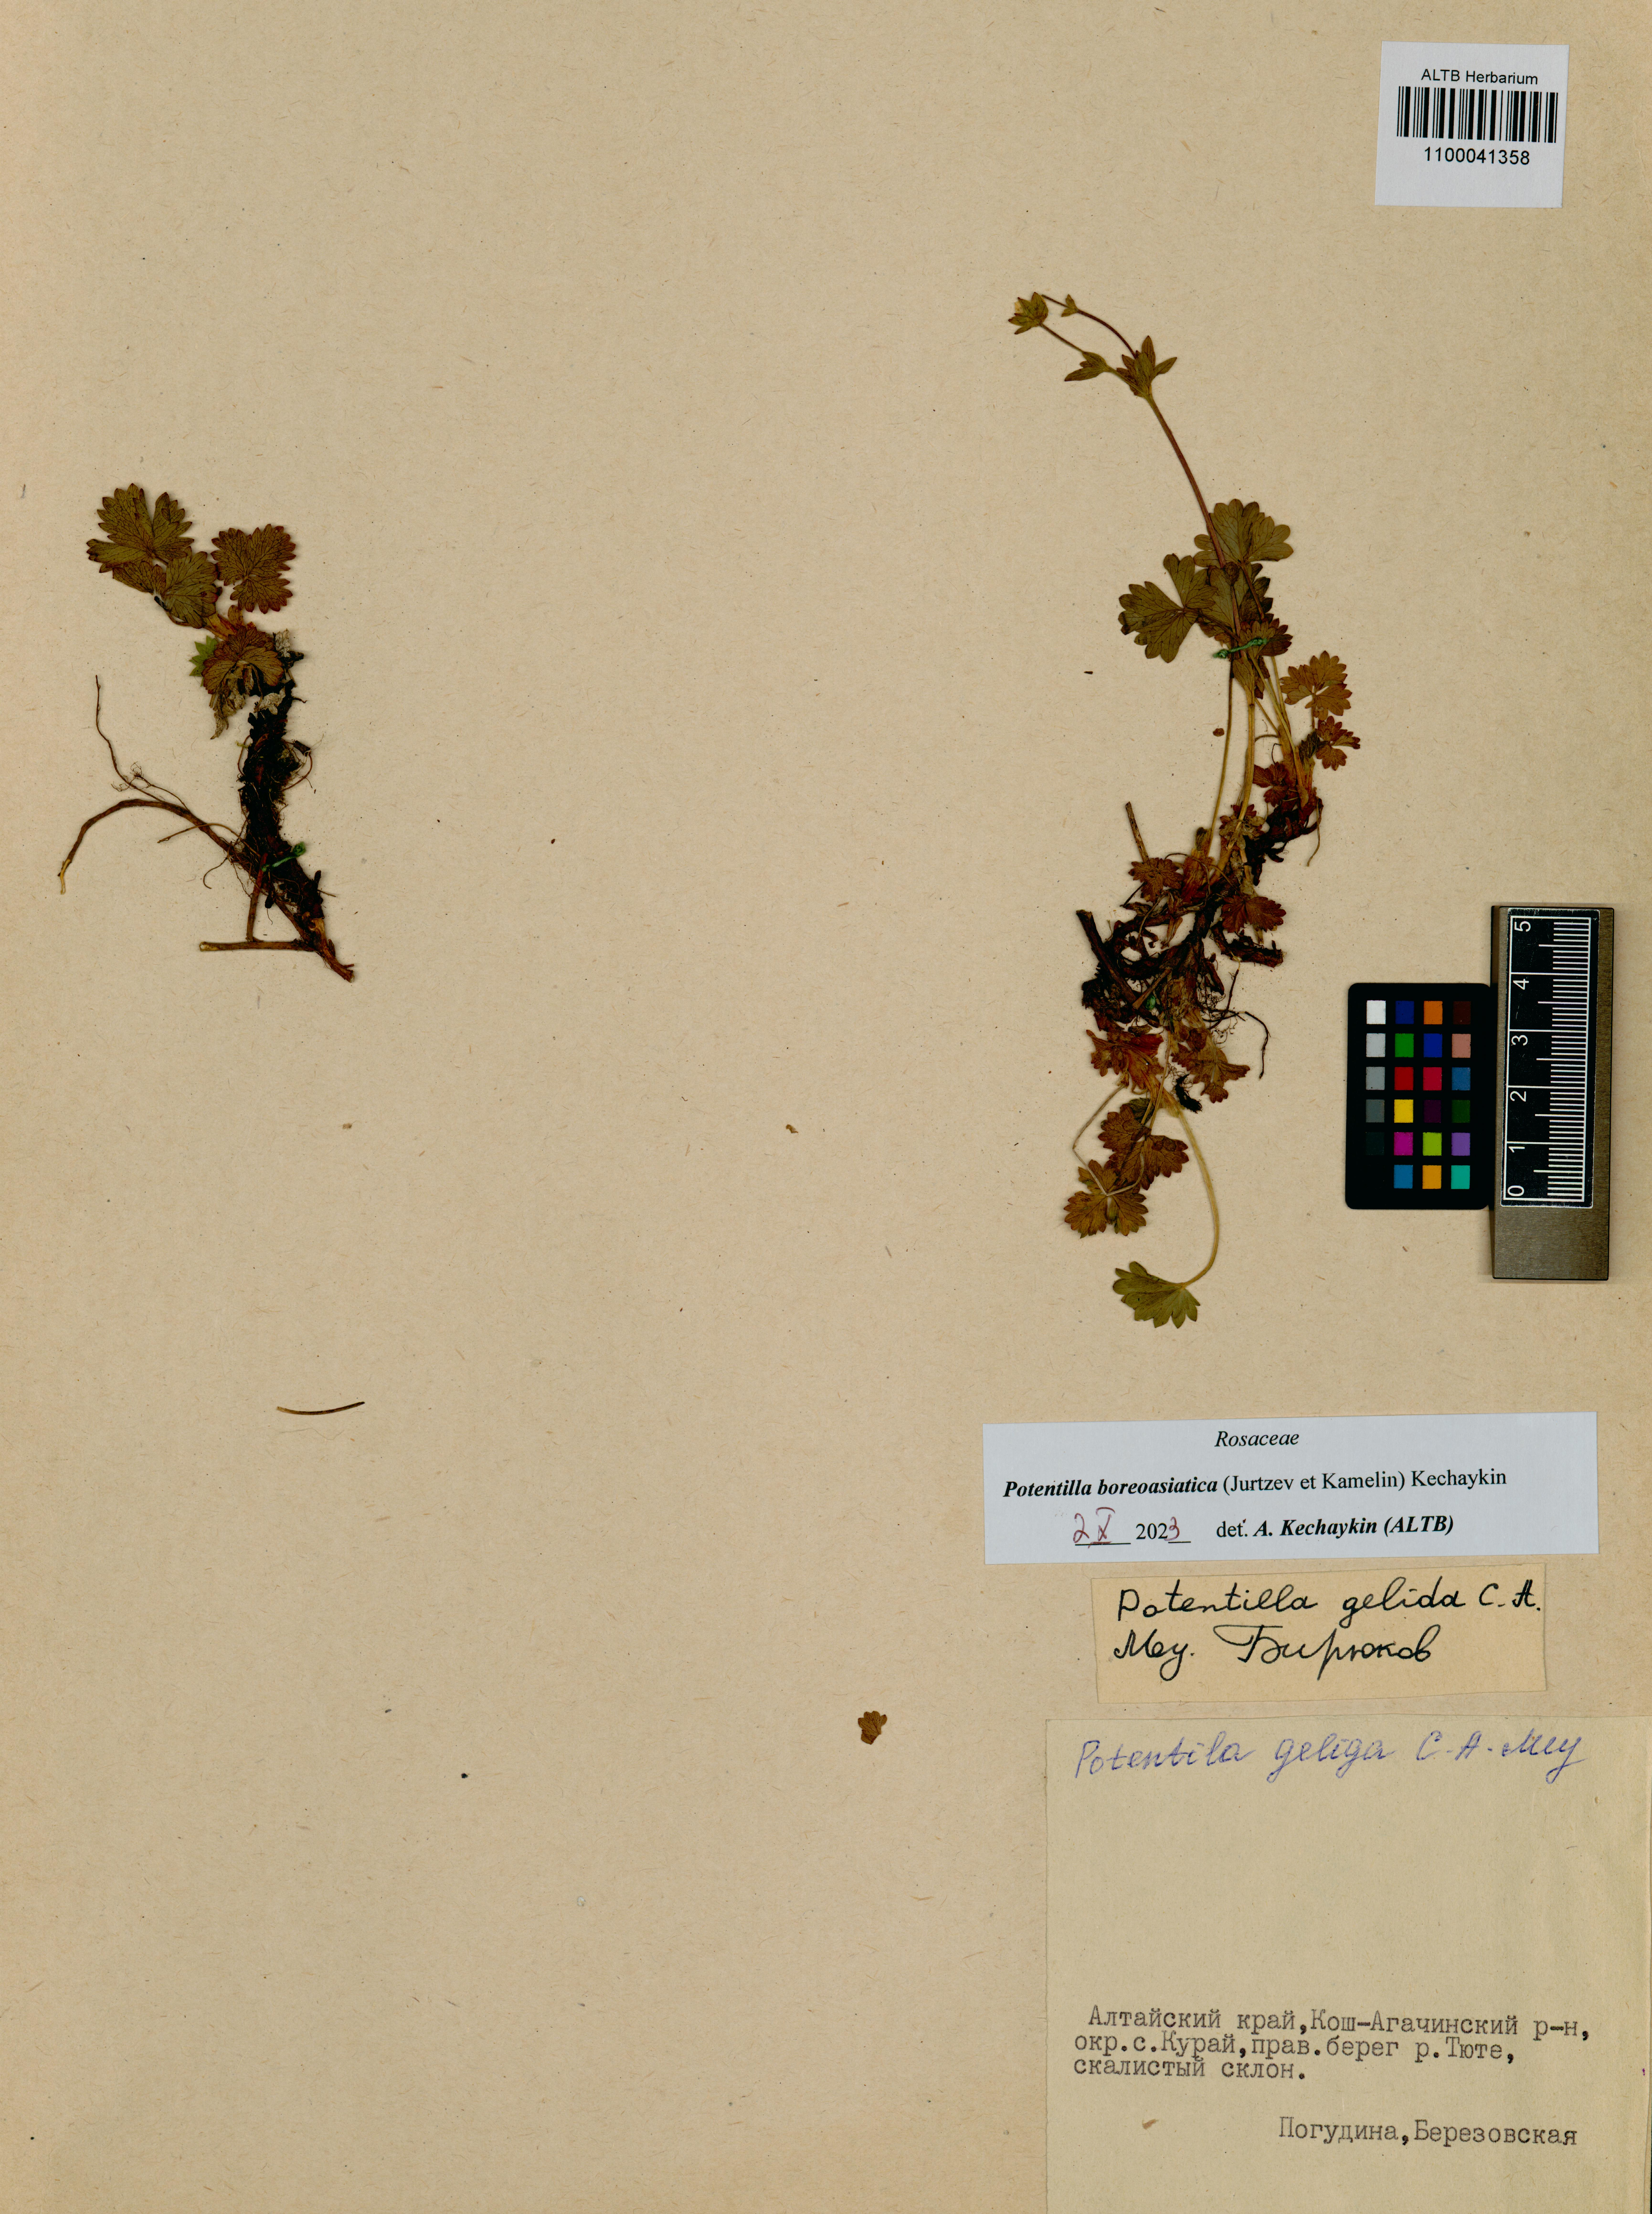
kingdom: Plantae
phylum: Tracheophyta
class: Magnoliopsida
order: Rosales
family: Rosaceae
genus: Potentilla
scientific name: Potentilla
